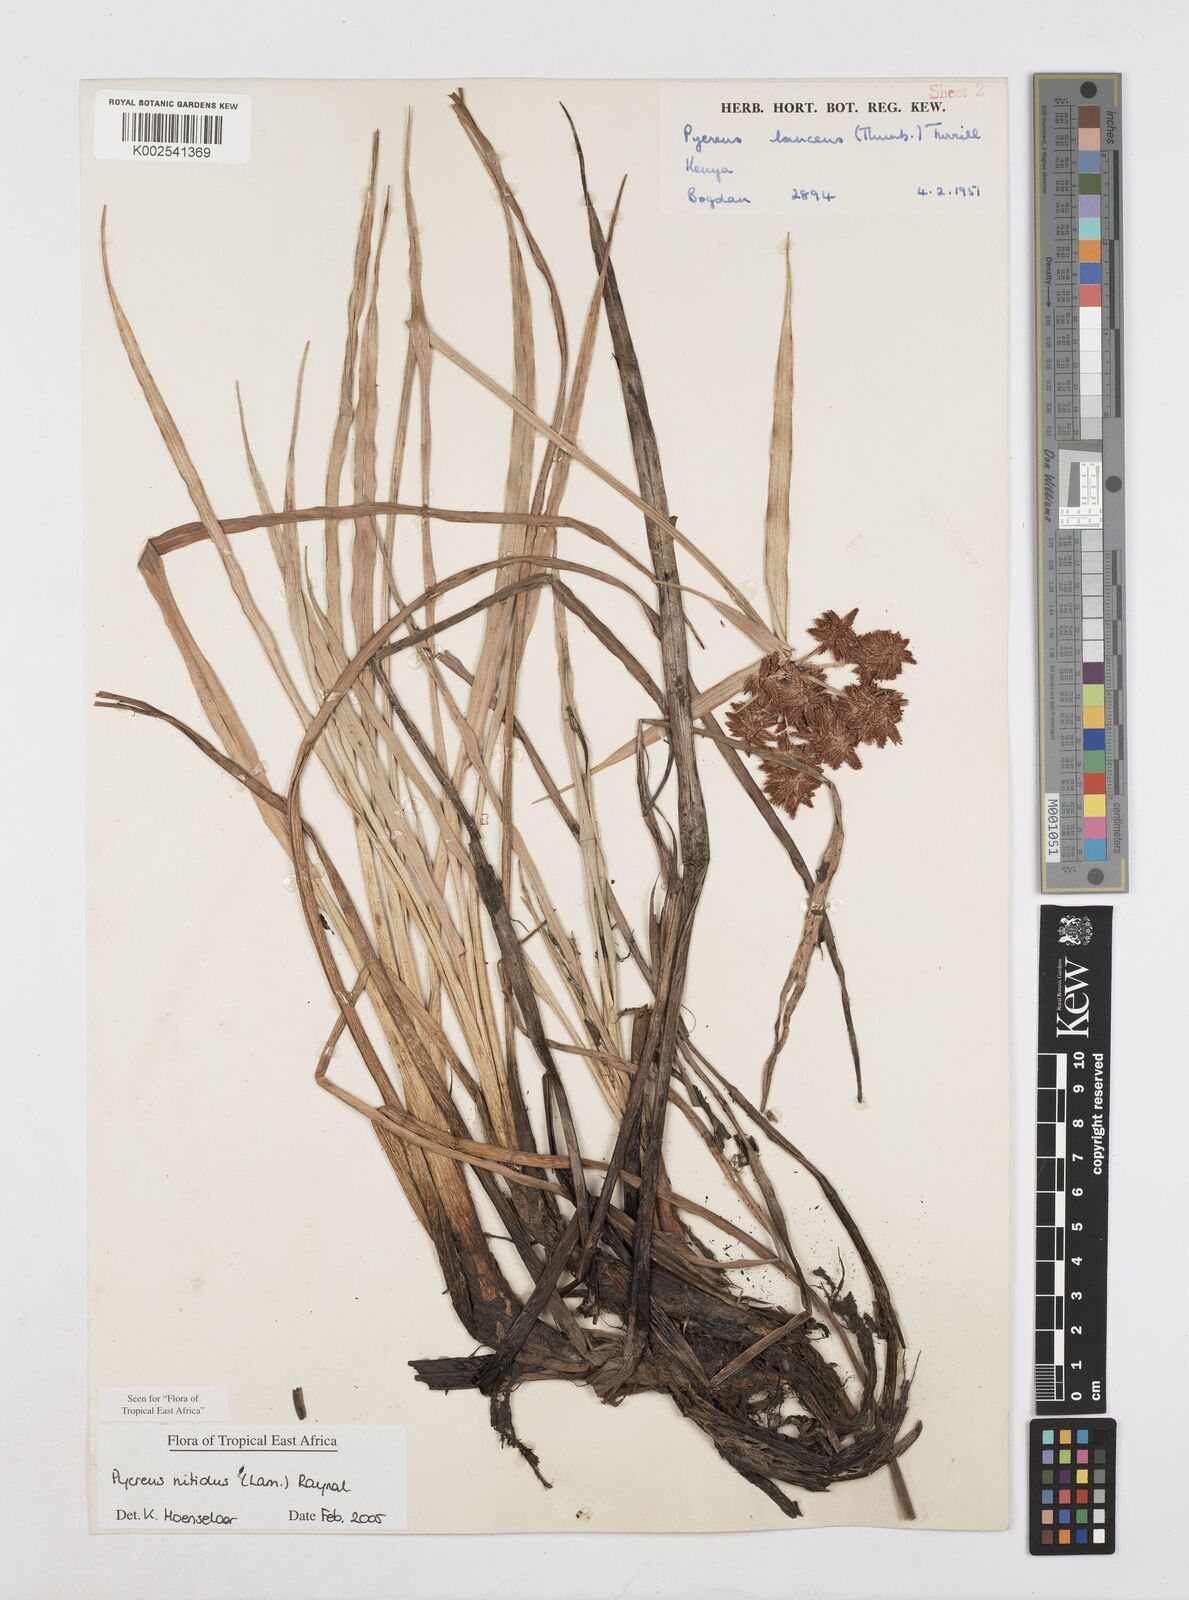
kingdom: Plantae
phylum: Tracheophyta
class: Liliopsida
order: Poales
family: Cyperaceae
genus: Cyperus
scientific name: Cyperus nitidus
